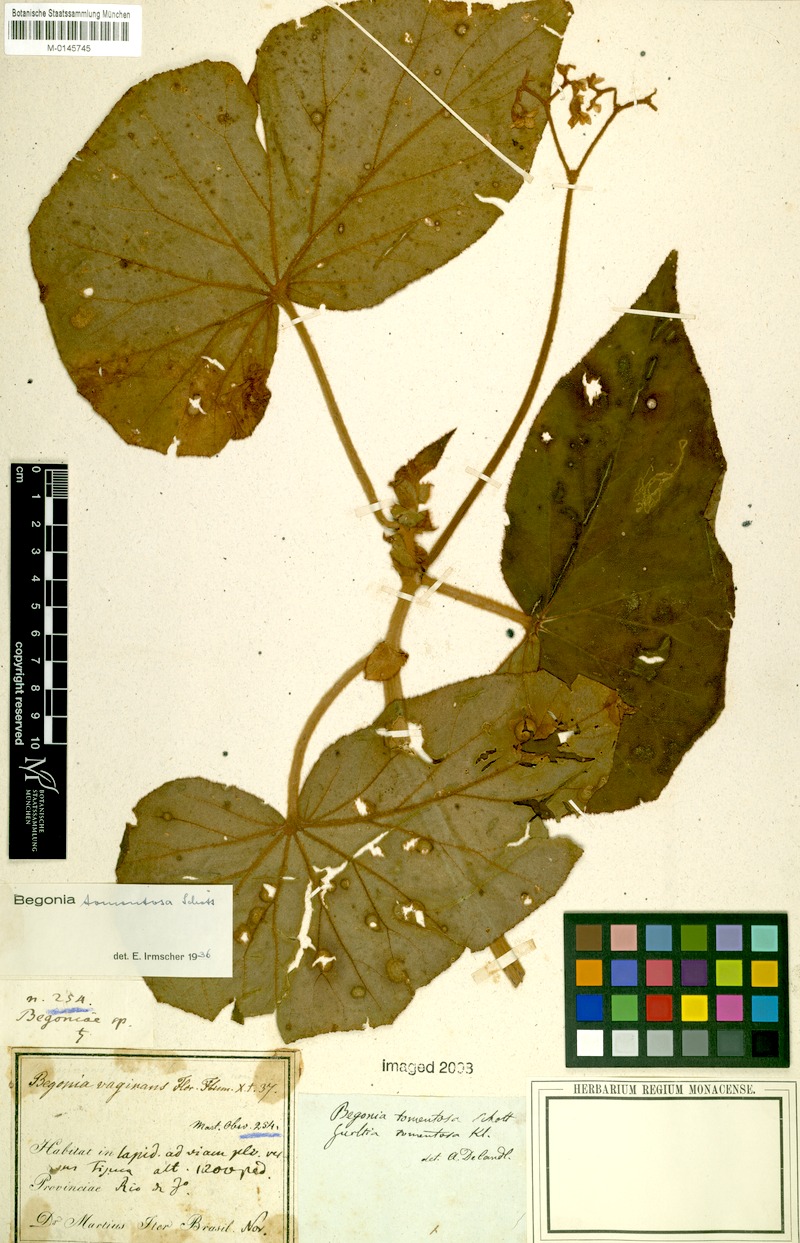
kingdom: Plantae
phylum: Tracheophyta
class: Magnoliopsida
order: Cucurbitales
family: Begoniaceae
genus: Begonia
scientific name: Begonia tomentosa
